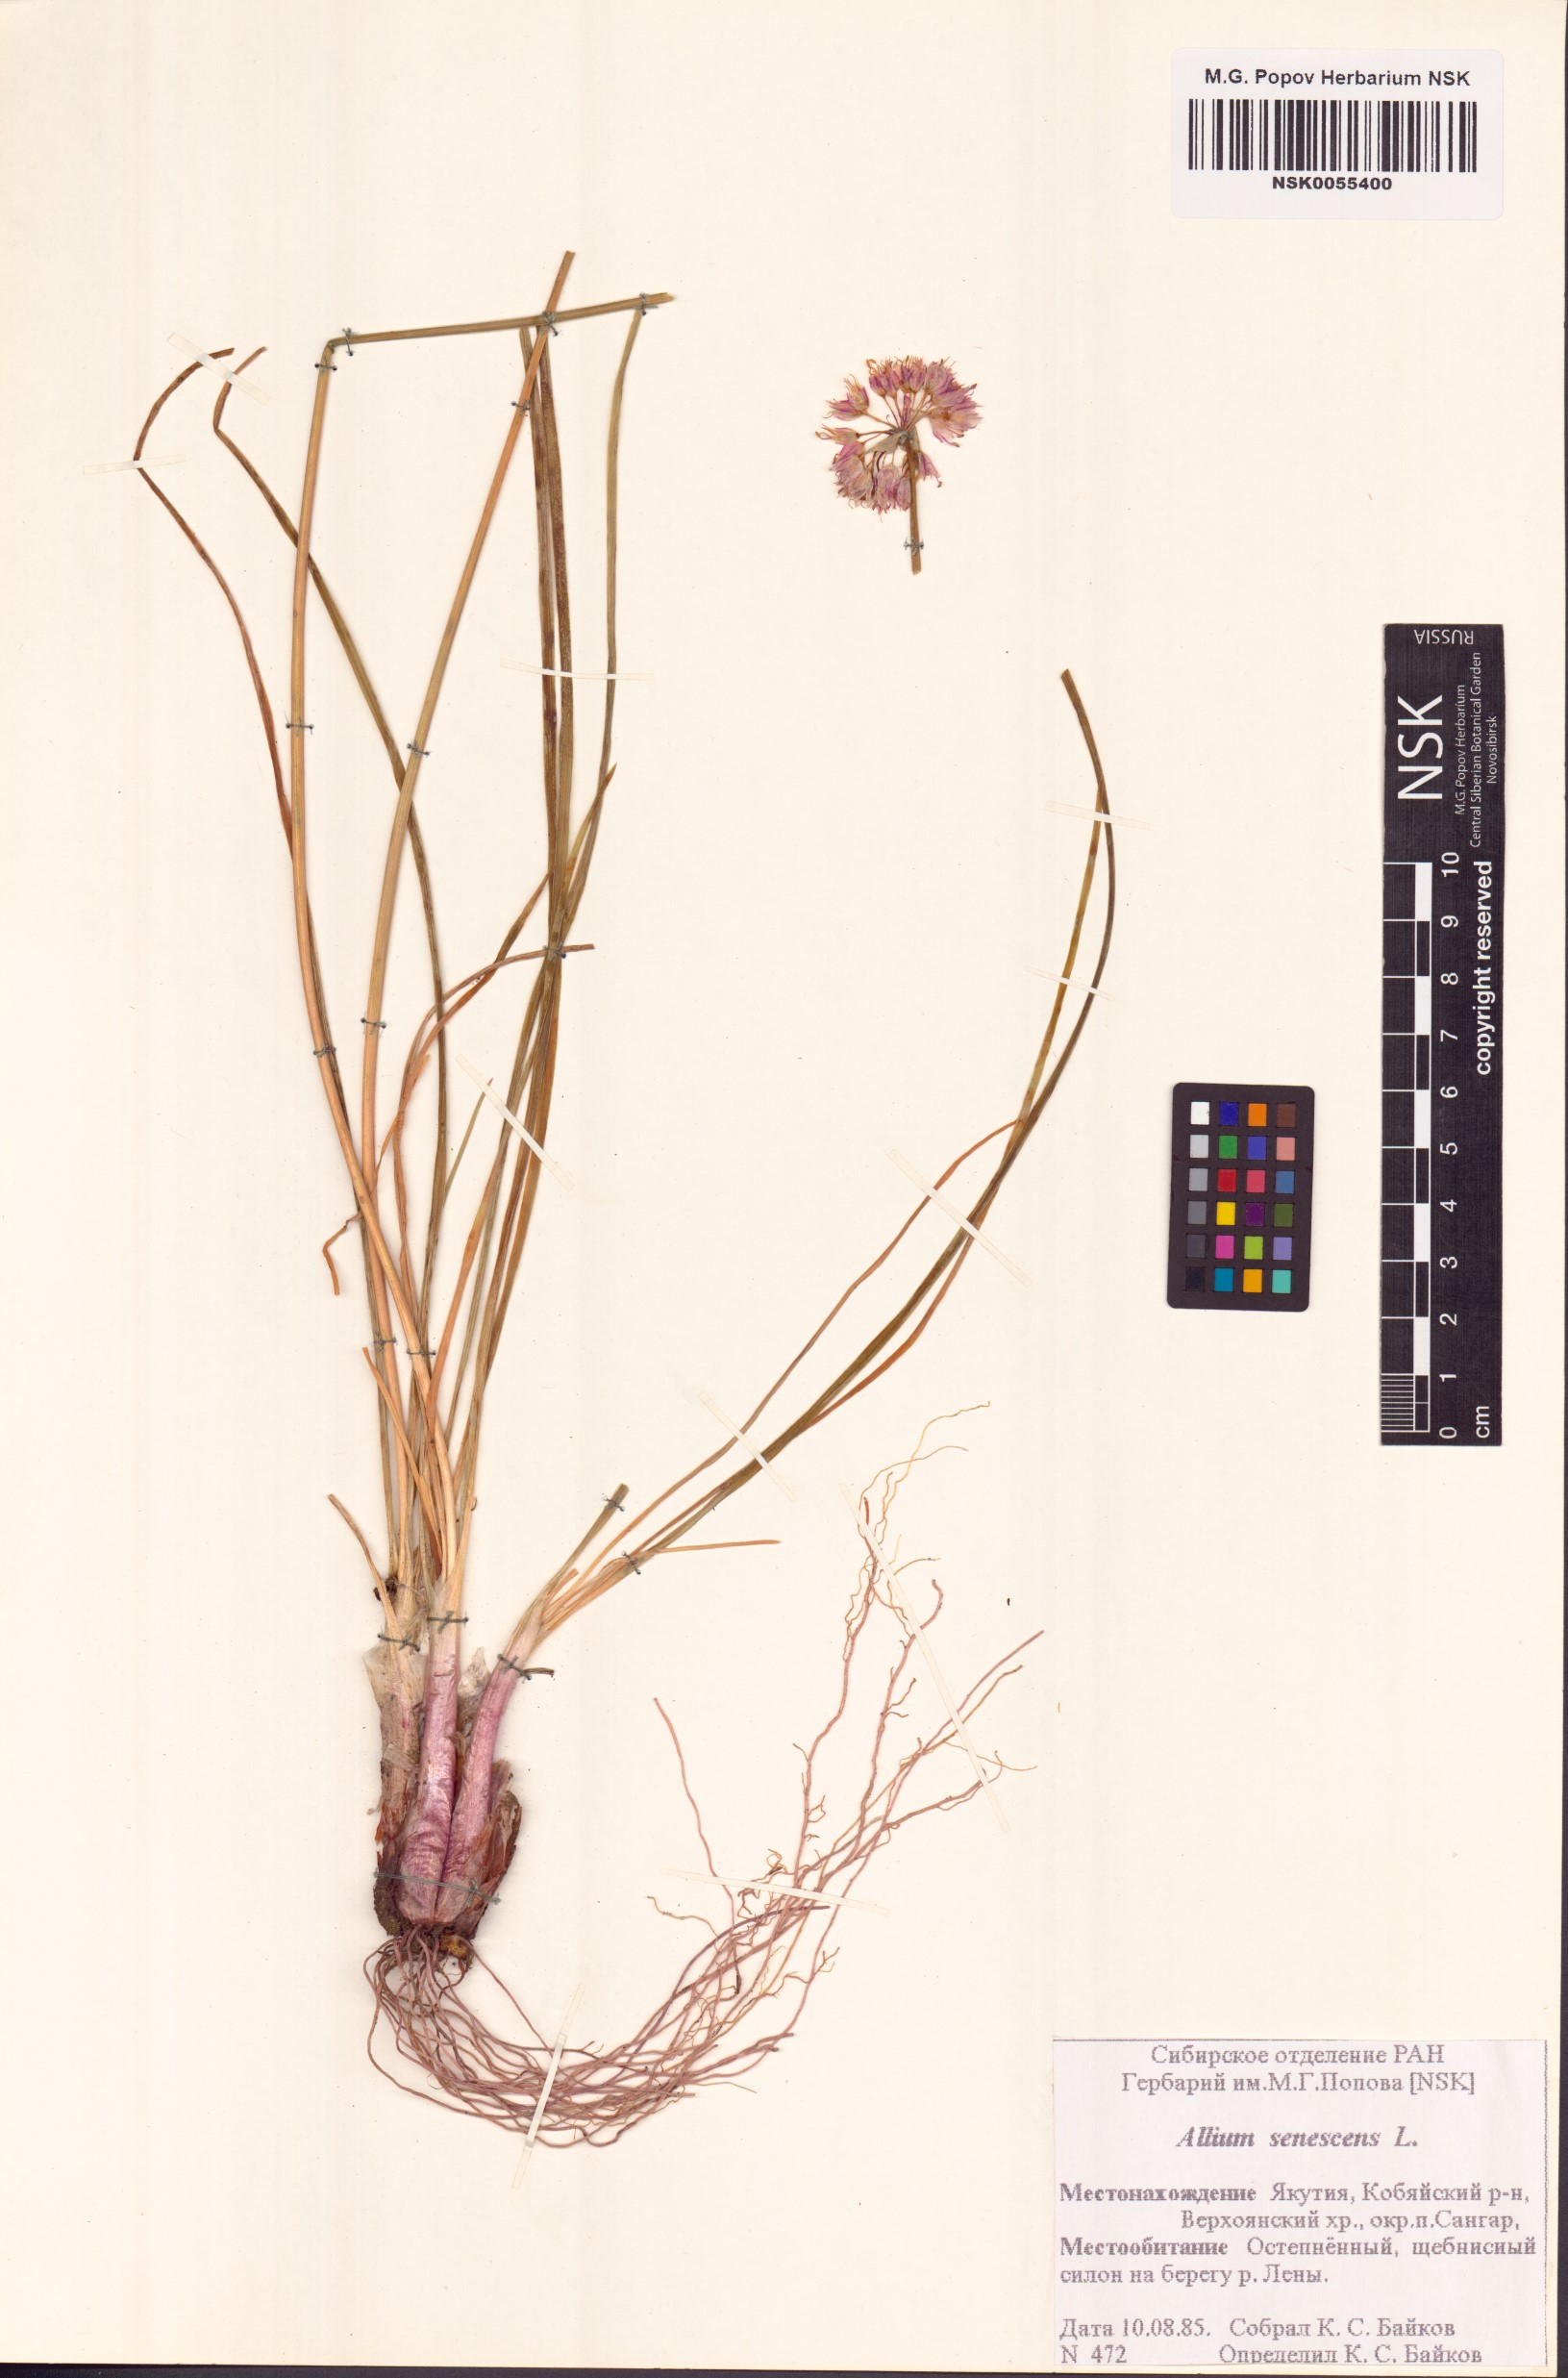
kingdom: Plantae
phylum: Tracheophyta
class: Liliopsida
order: Asparagales
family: Amaryllidaceae
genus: Allium
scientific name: Allium senescens
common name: German garlic
